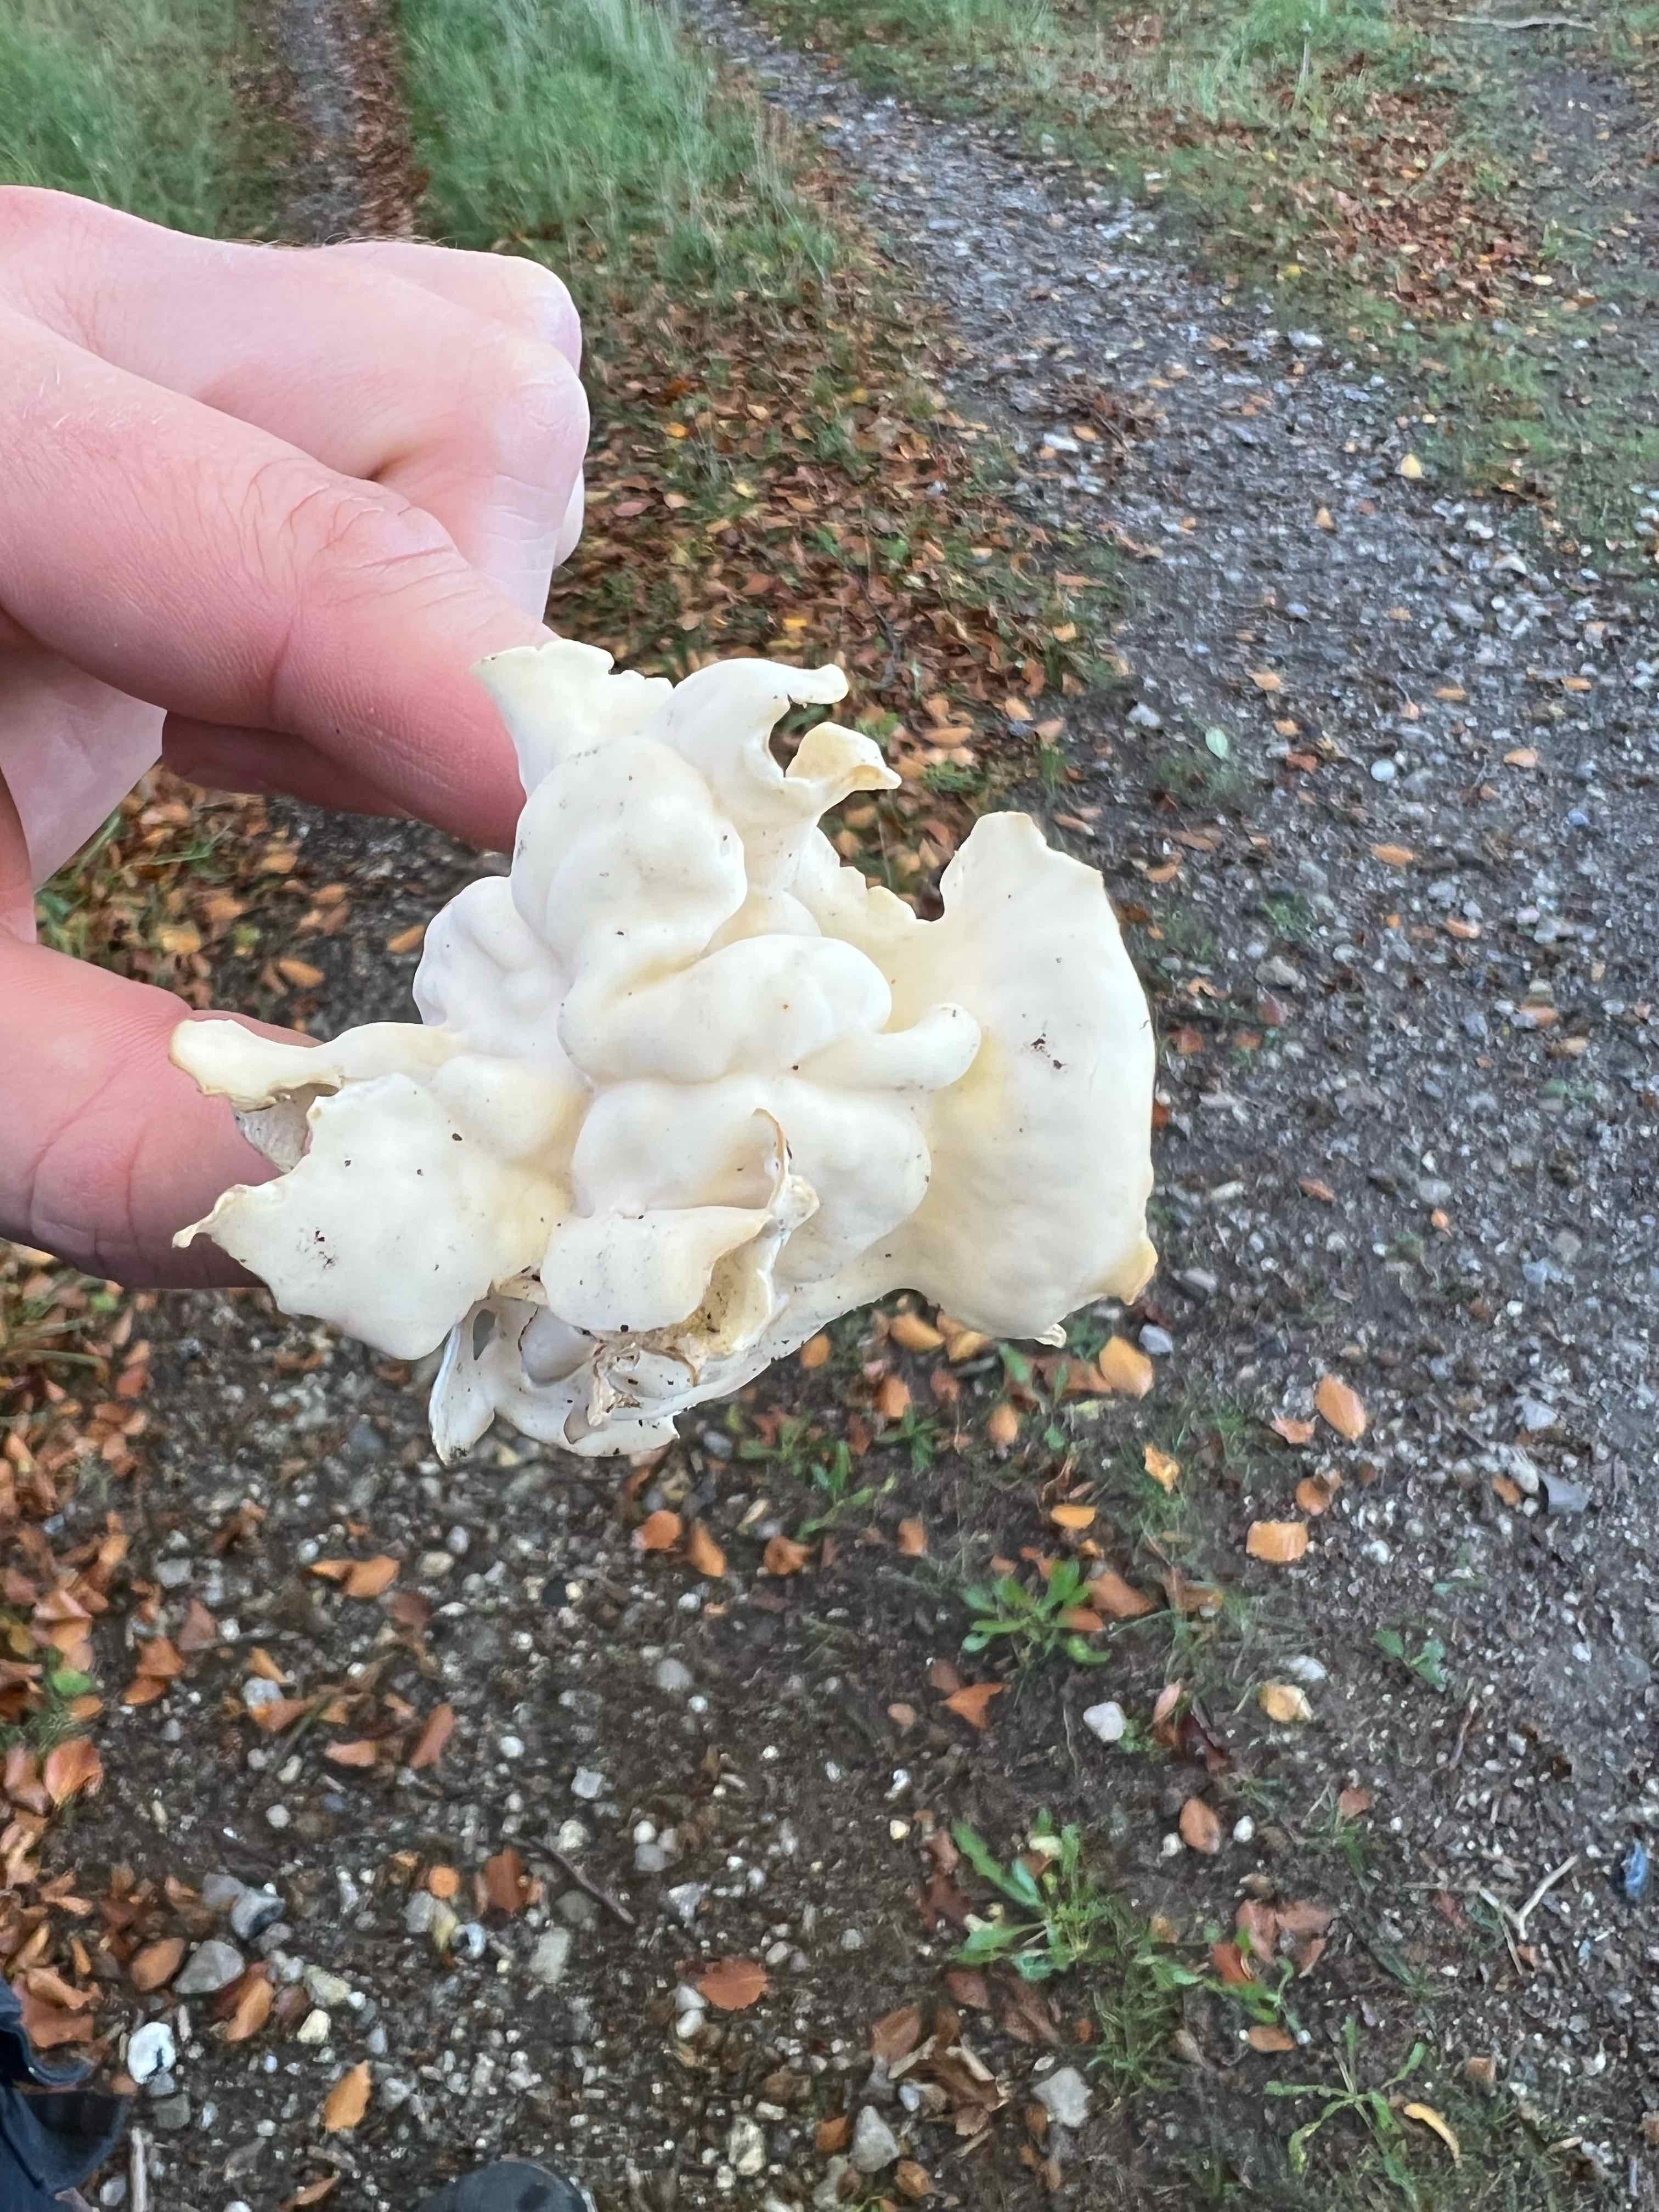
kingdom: Fungi
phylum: Ascomycota
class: Pezizomycetes
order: Pezizales
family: Helvellaceae
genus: Helvella
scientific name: Helvella crispa
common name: kruset foldhat
